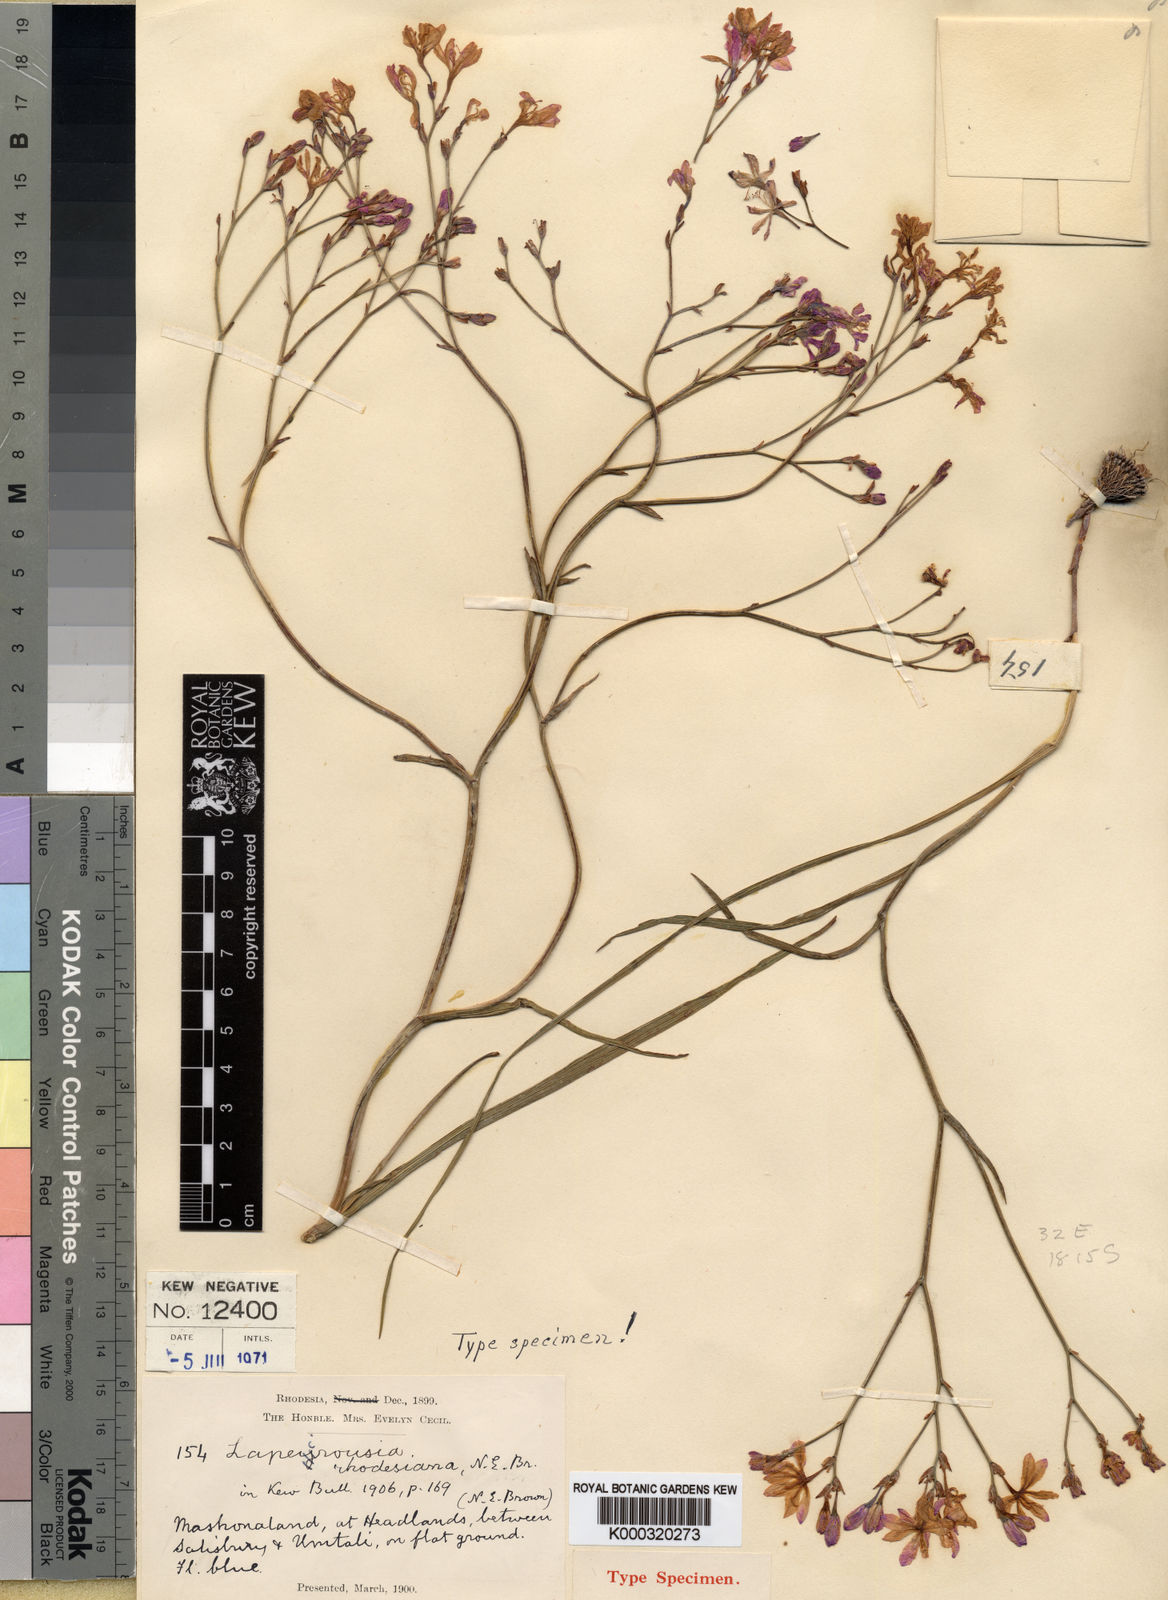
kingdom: Plantae
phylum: Tracheophyta
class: Liliopsida
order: Asparagales
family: Iridaceae
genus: Afrosolen
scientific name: Afrosolen erythranthus
